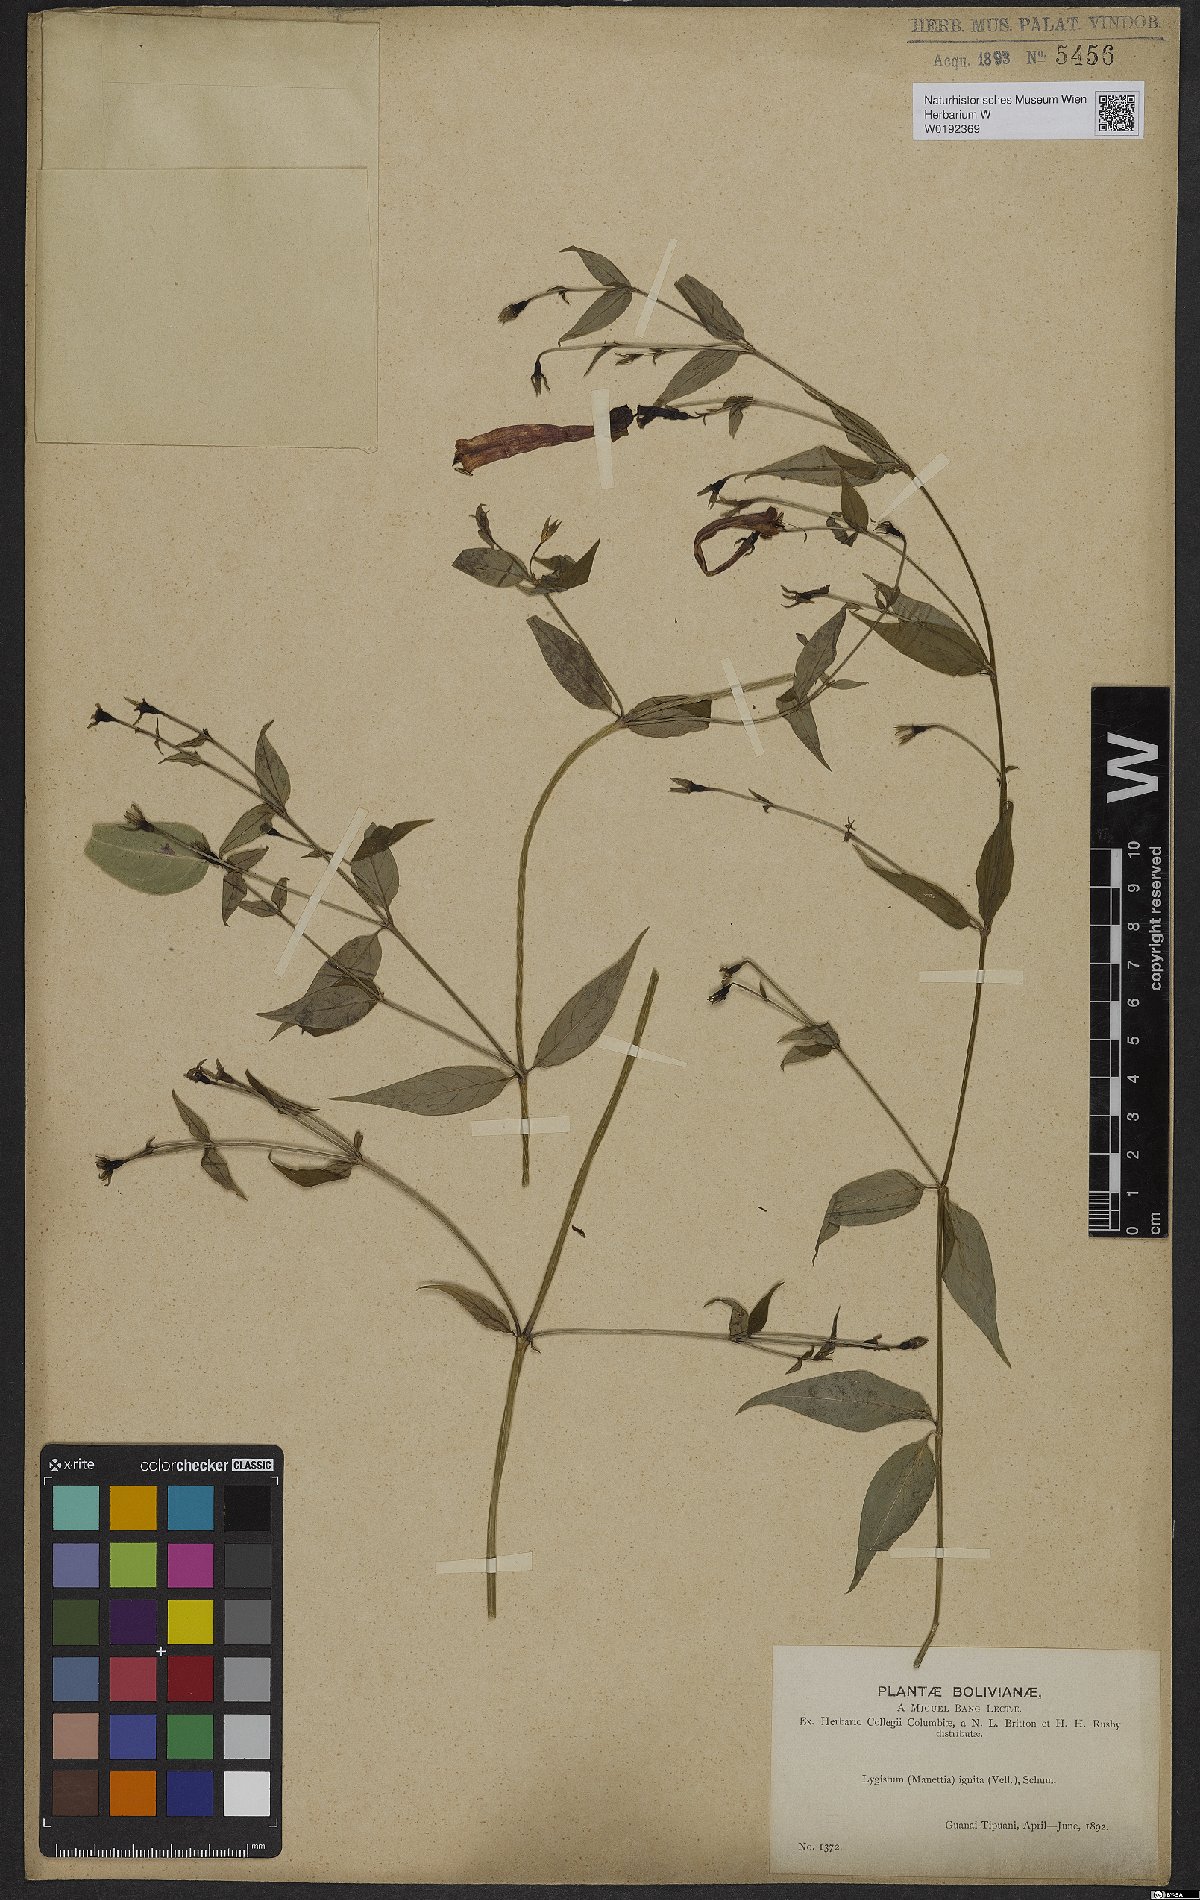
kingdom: Plantae
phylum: Tracheophyta
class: Magnoliopsida
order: Gentianales
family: Rubiaceae
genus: Manettia
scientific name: Manettia cordifolia
